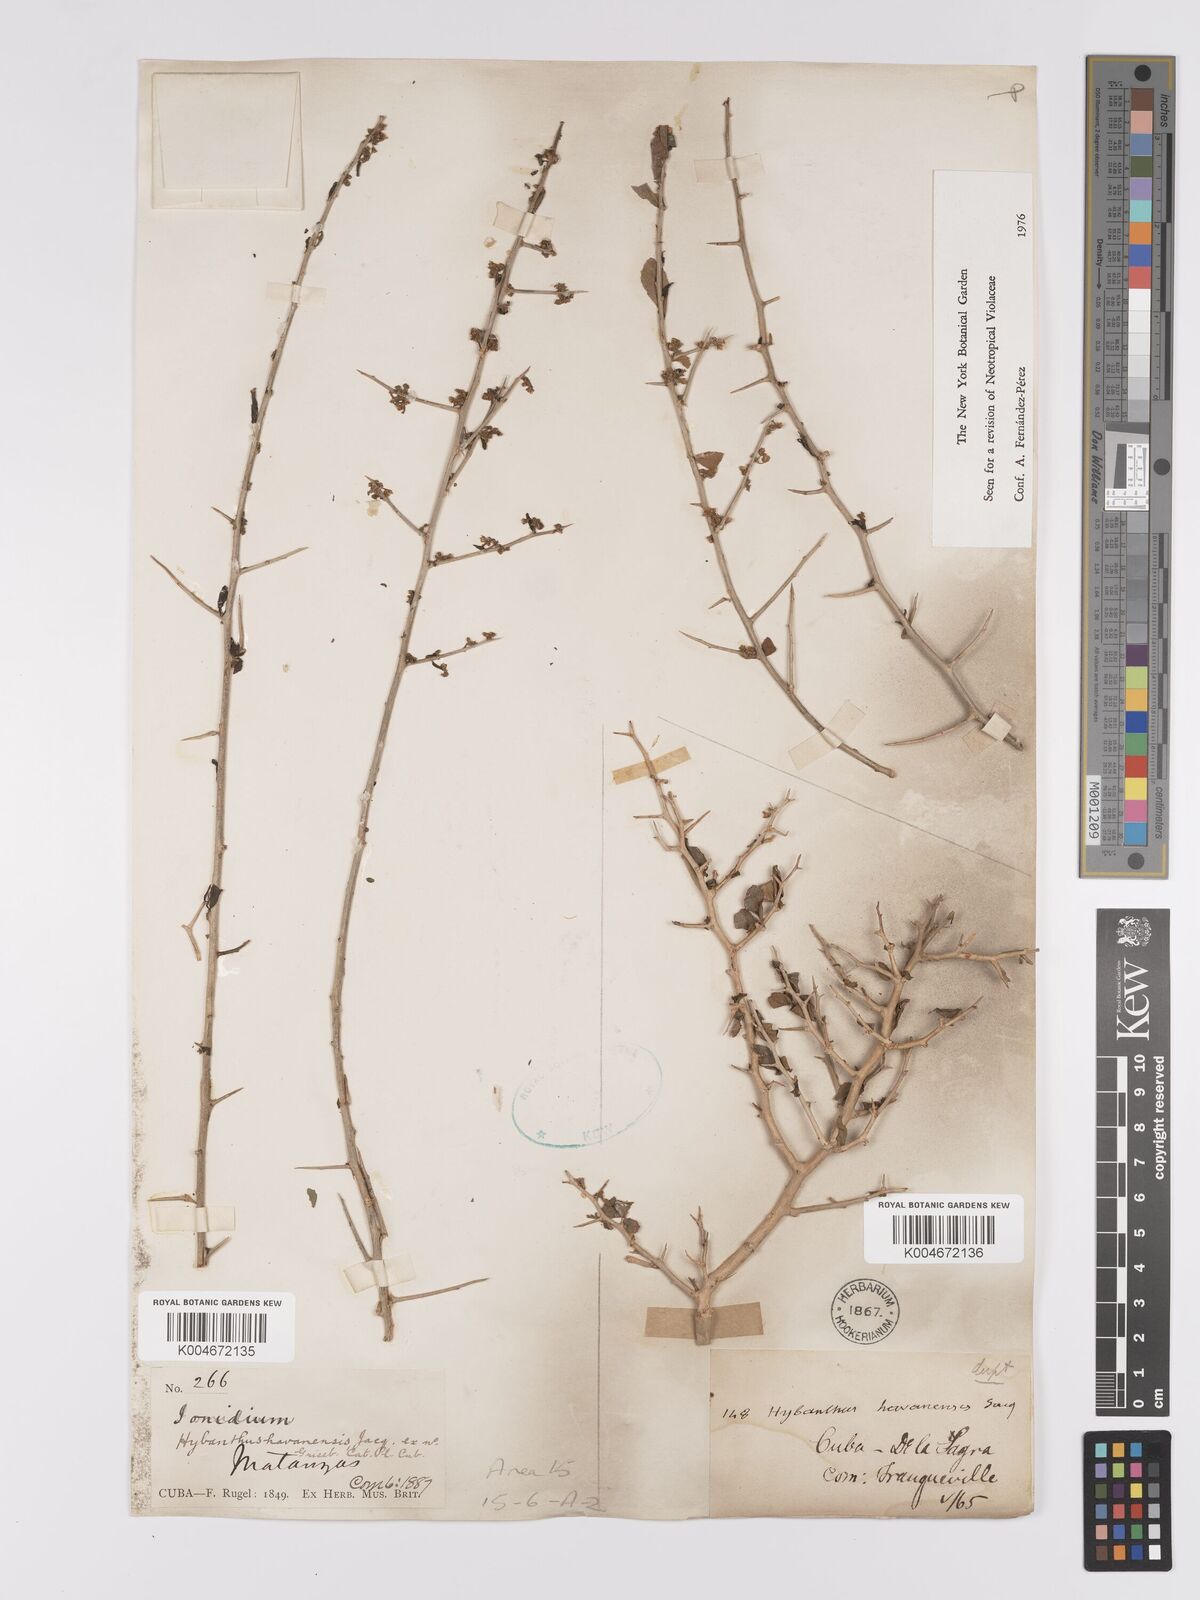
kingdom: Plantae
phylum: Tracheophyta
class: Magnoliopsida
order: Malpighiales
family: Violaceae
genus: Hybanthus
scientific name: Hybanthus havanensis
